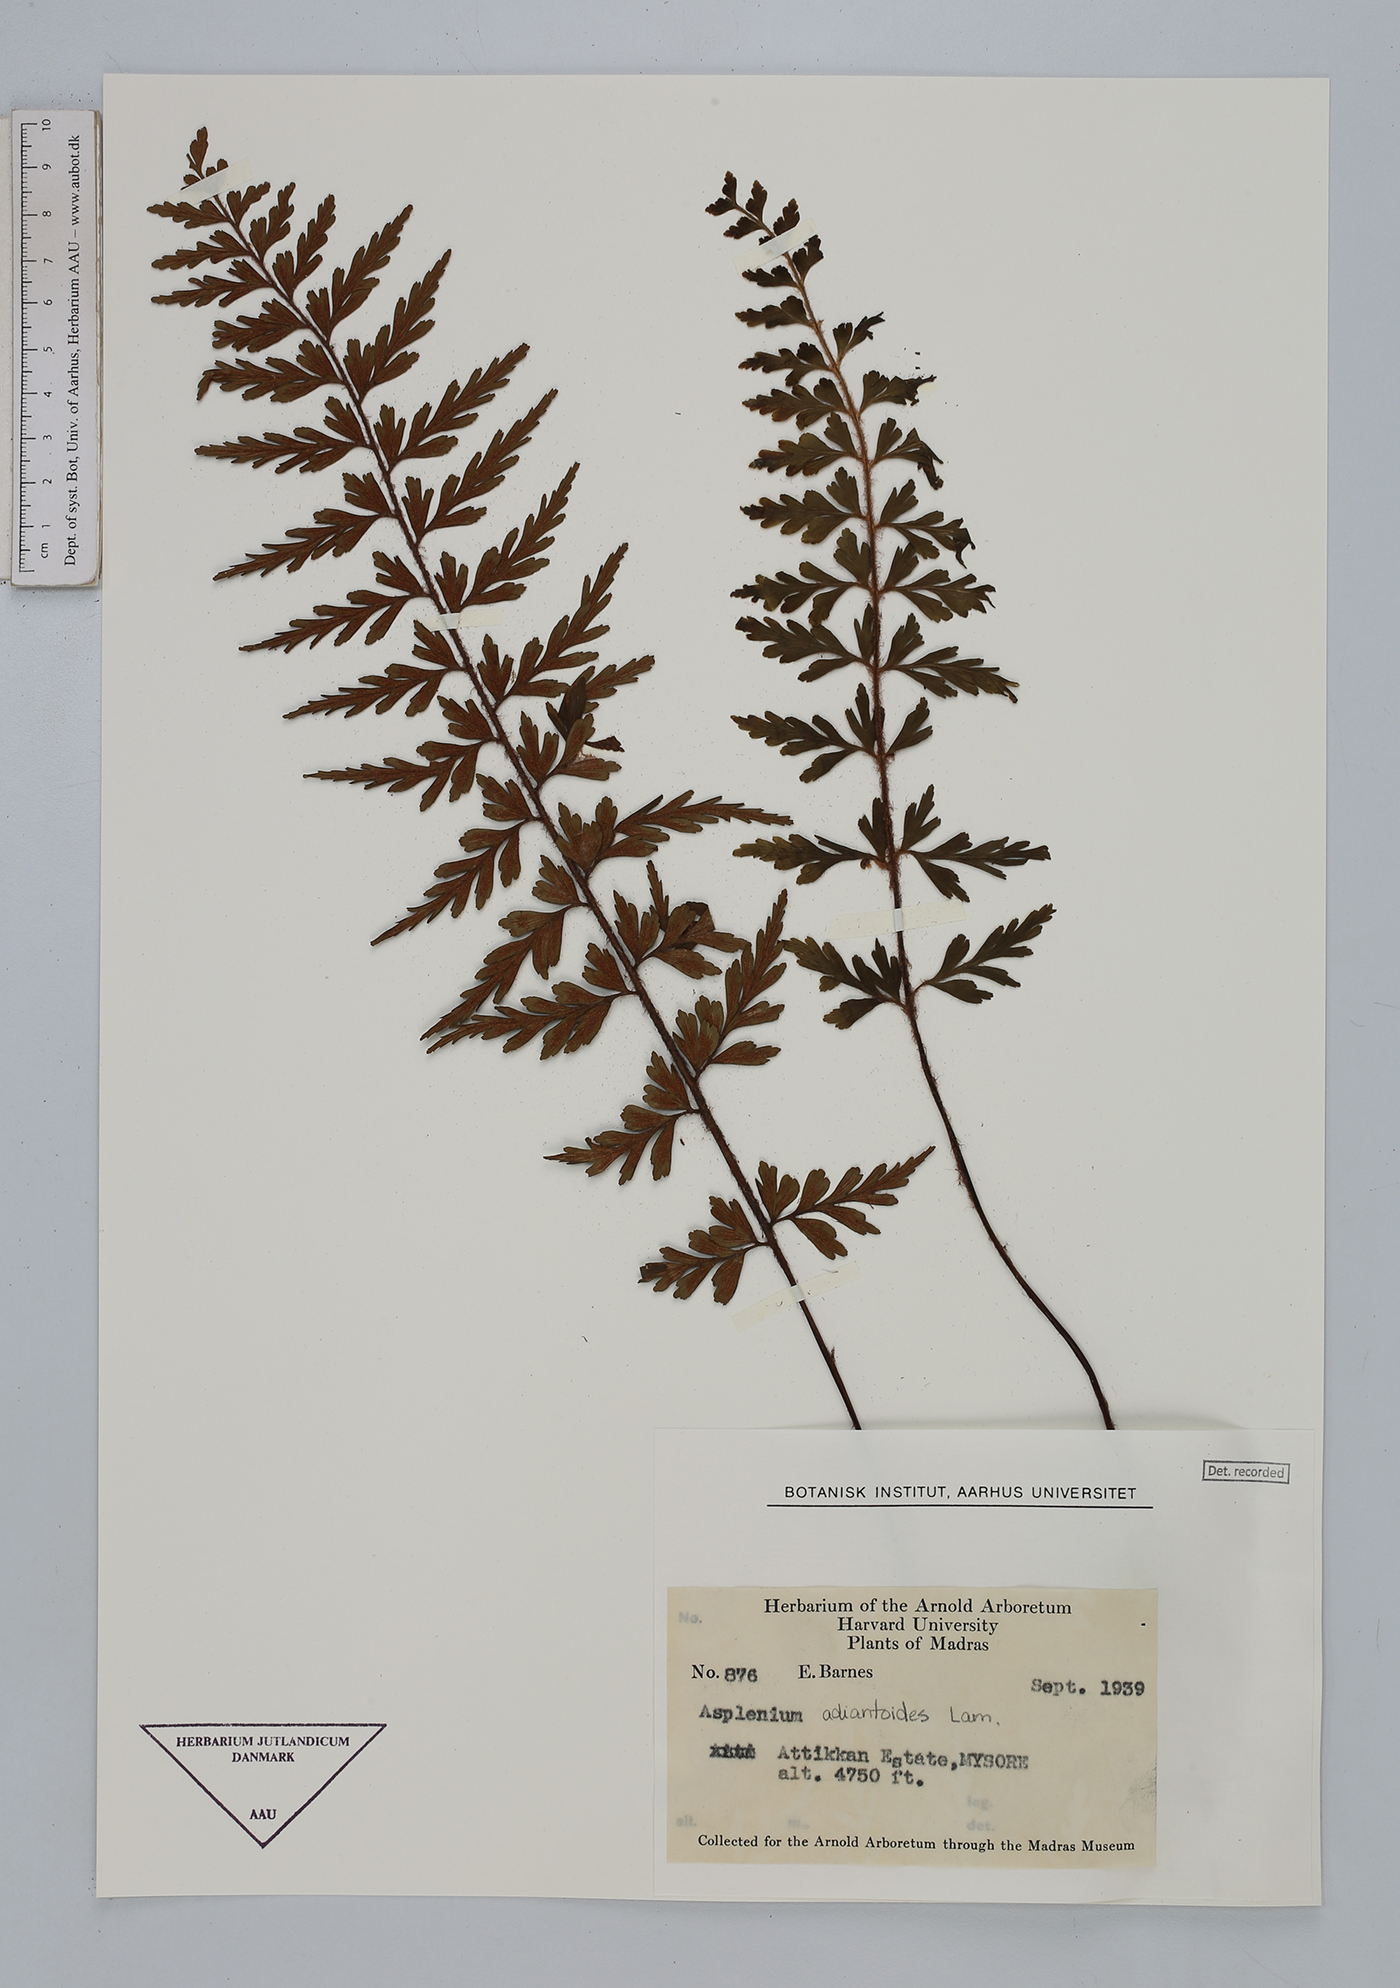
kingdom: Plantae
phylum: Tracheophyta
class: Polypodiopsida
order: Polypodiales
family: Aspleniaceae
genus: Asplenium
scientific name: Asplenium aethiopicum
